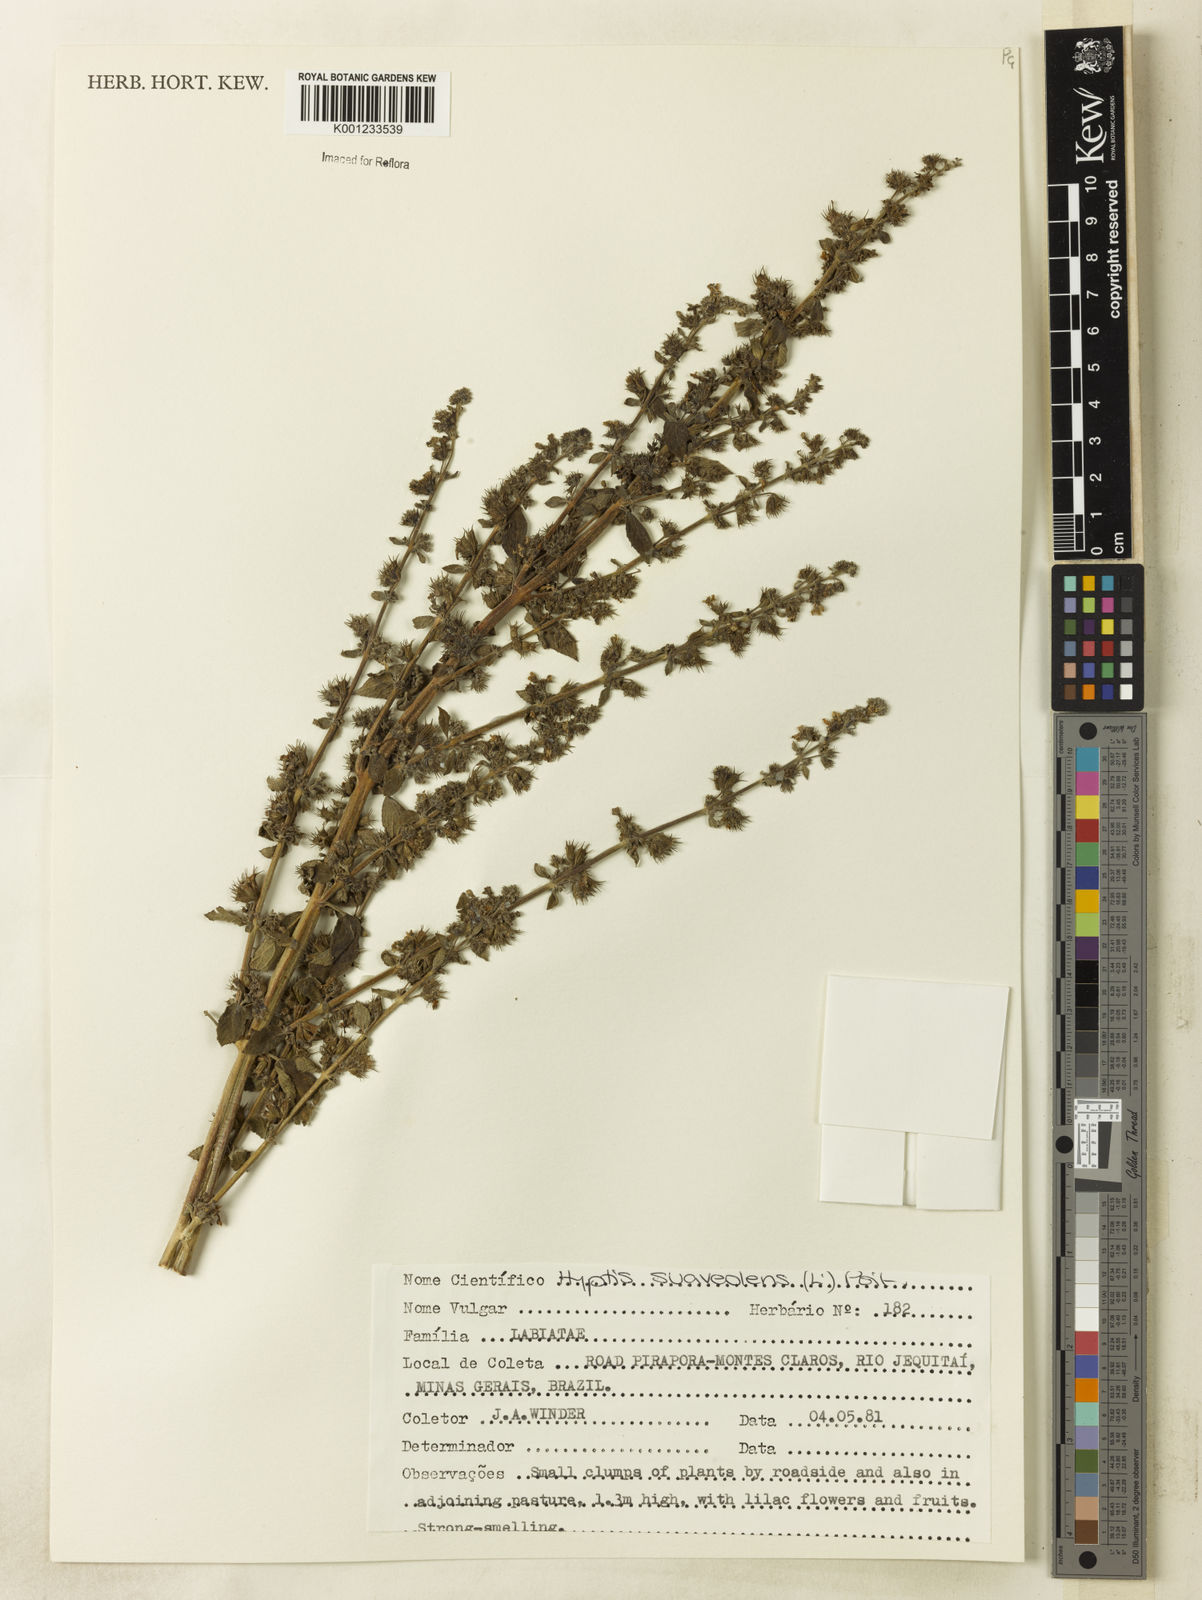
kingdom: Plantae
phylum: Tracheophyta
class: Magnoliopsida
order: Lamiales
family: Lamiaceae
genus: Mesosphaerum
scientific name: Mesosphaerum suaveolens
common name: Pignut
